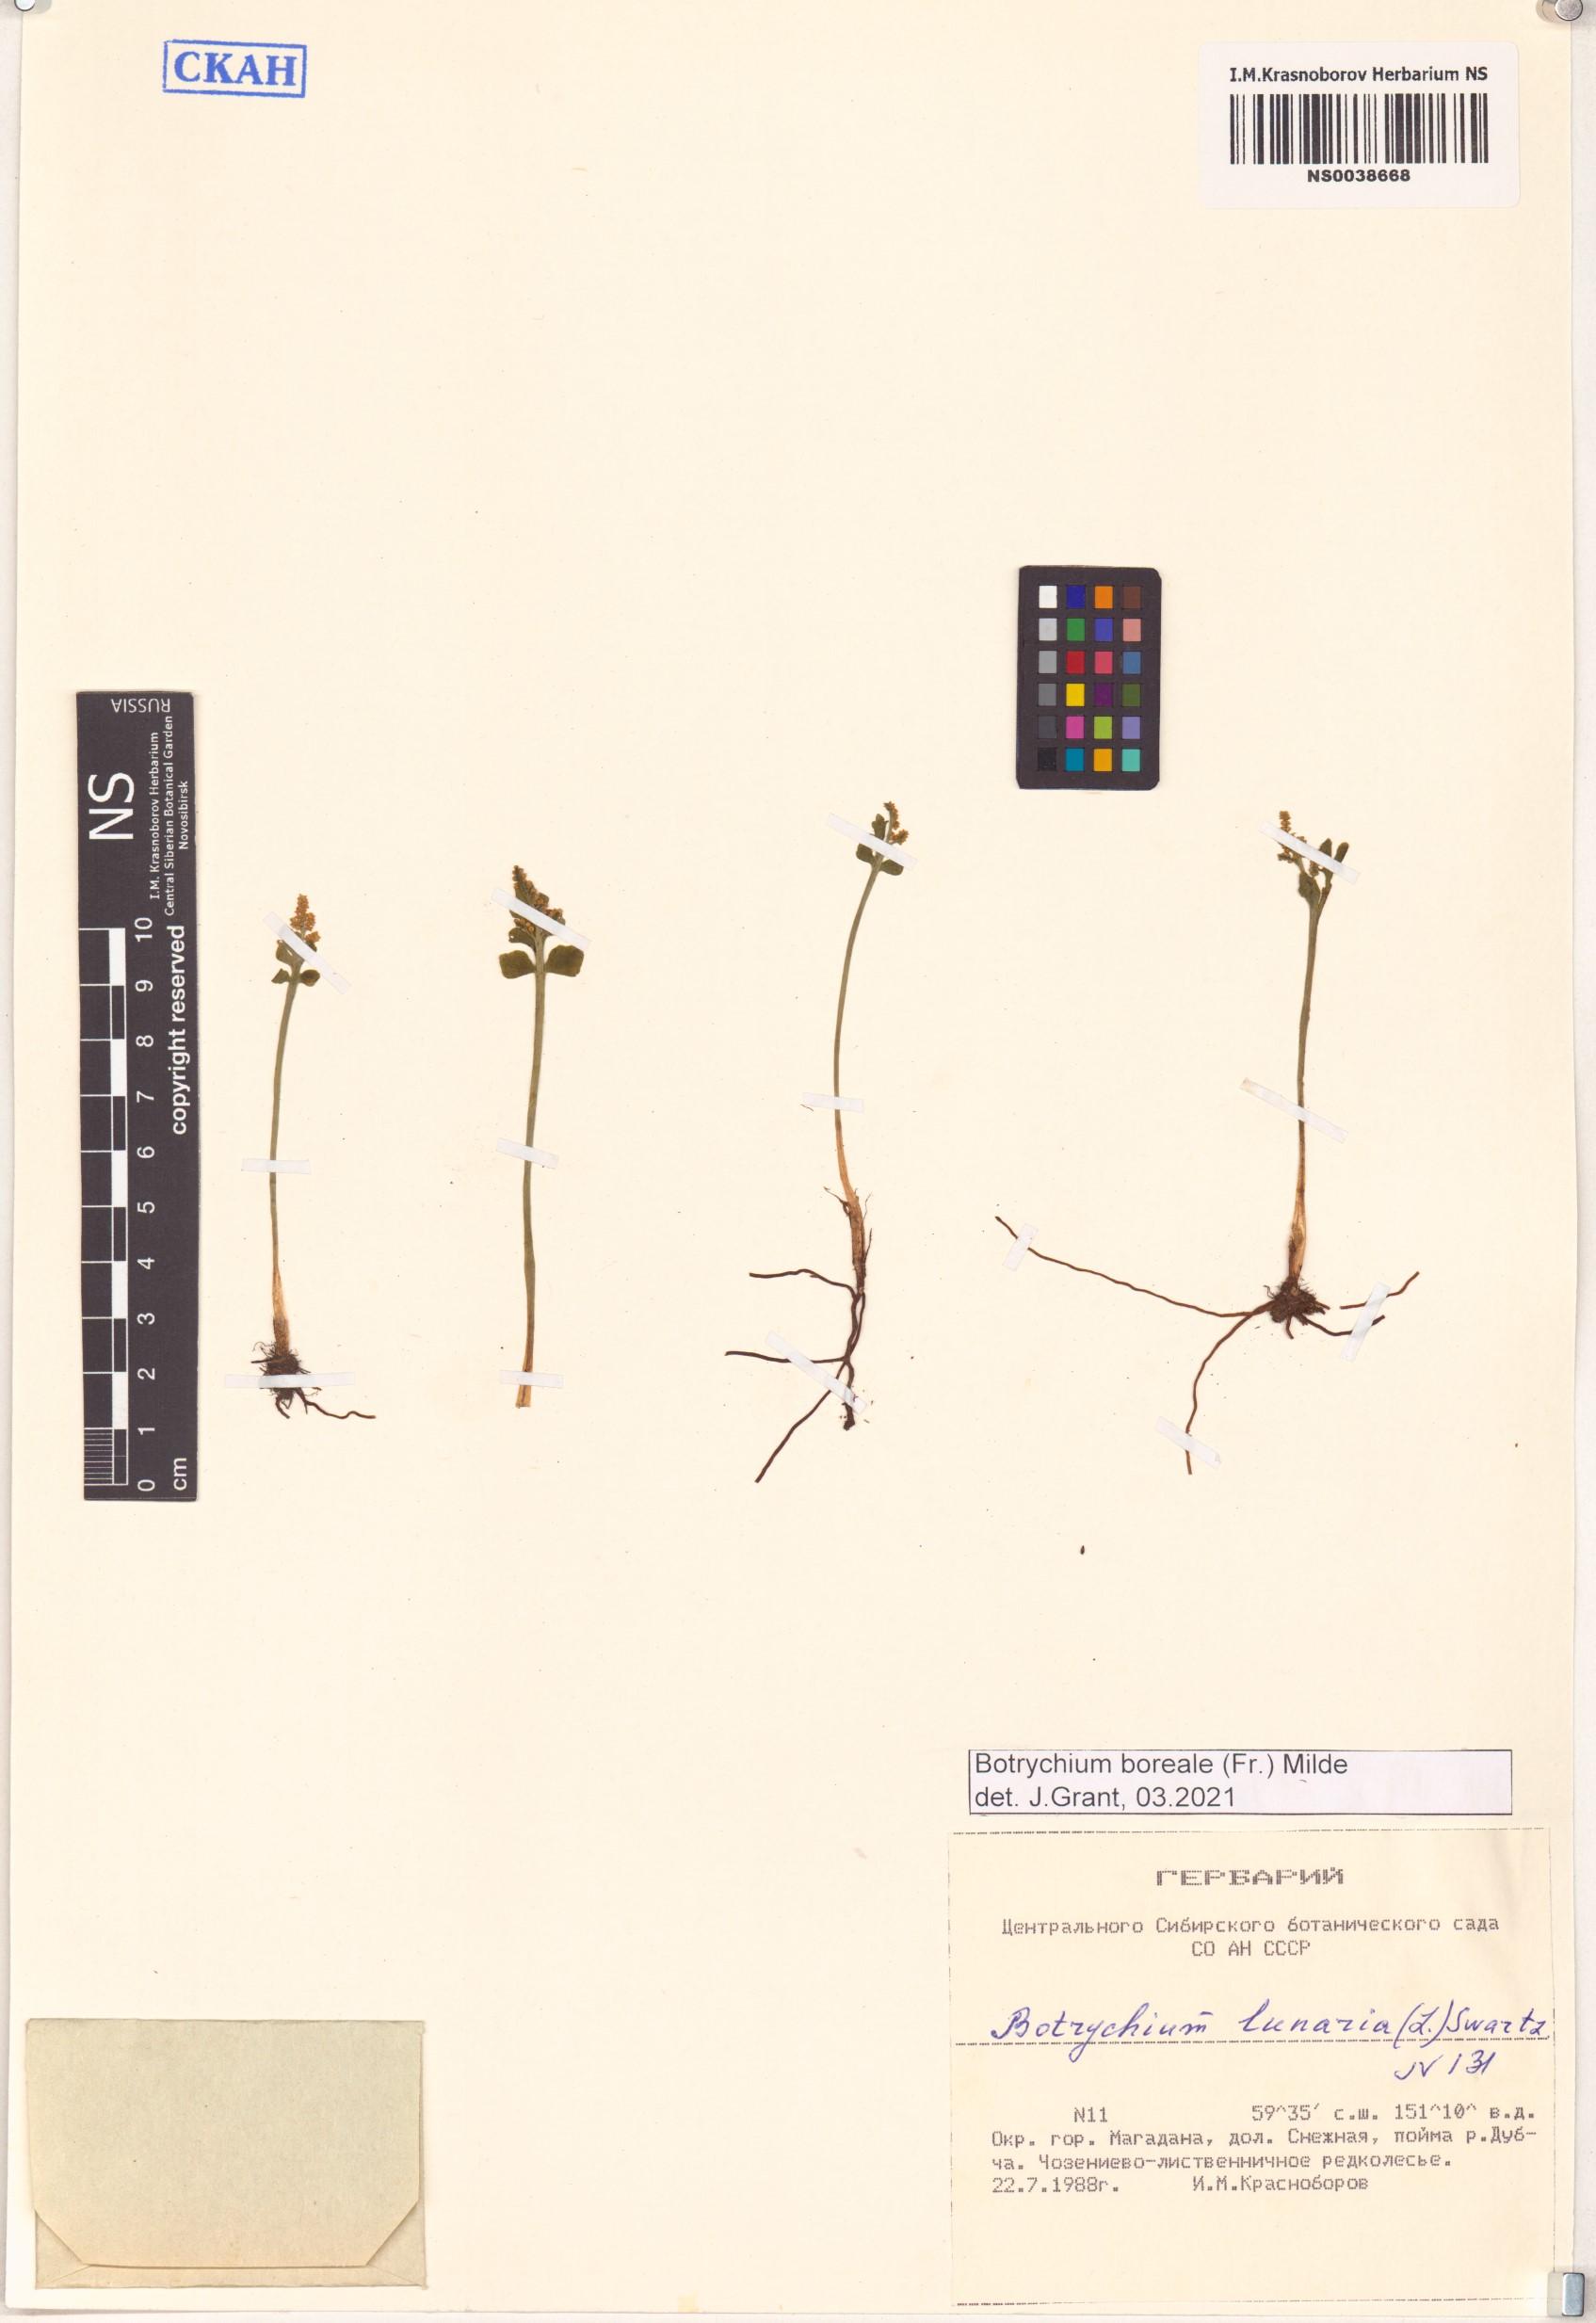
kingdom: Plantae
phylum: Tracheophyta
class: Polypodiopsida
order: Ophioglossales
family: Ophioglossaceae
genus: Botrychium
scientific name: Botrychium boreale
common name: Boreal moonwort
